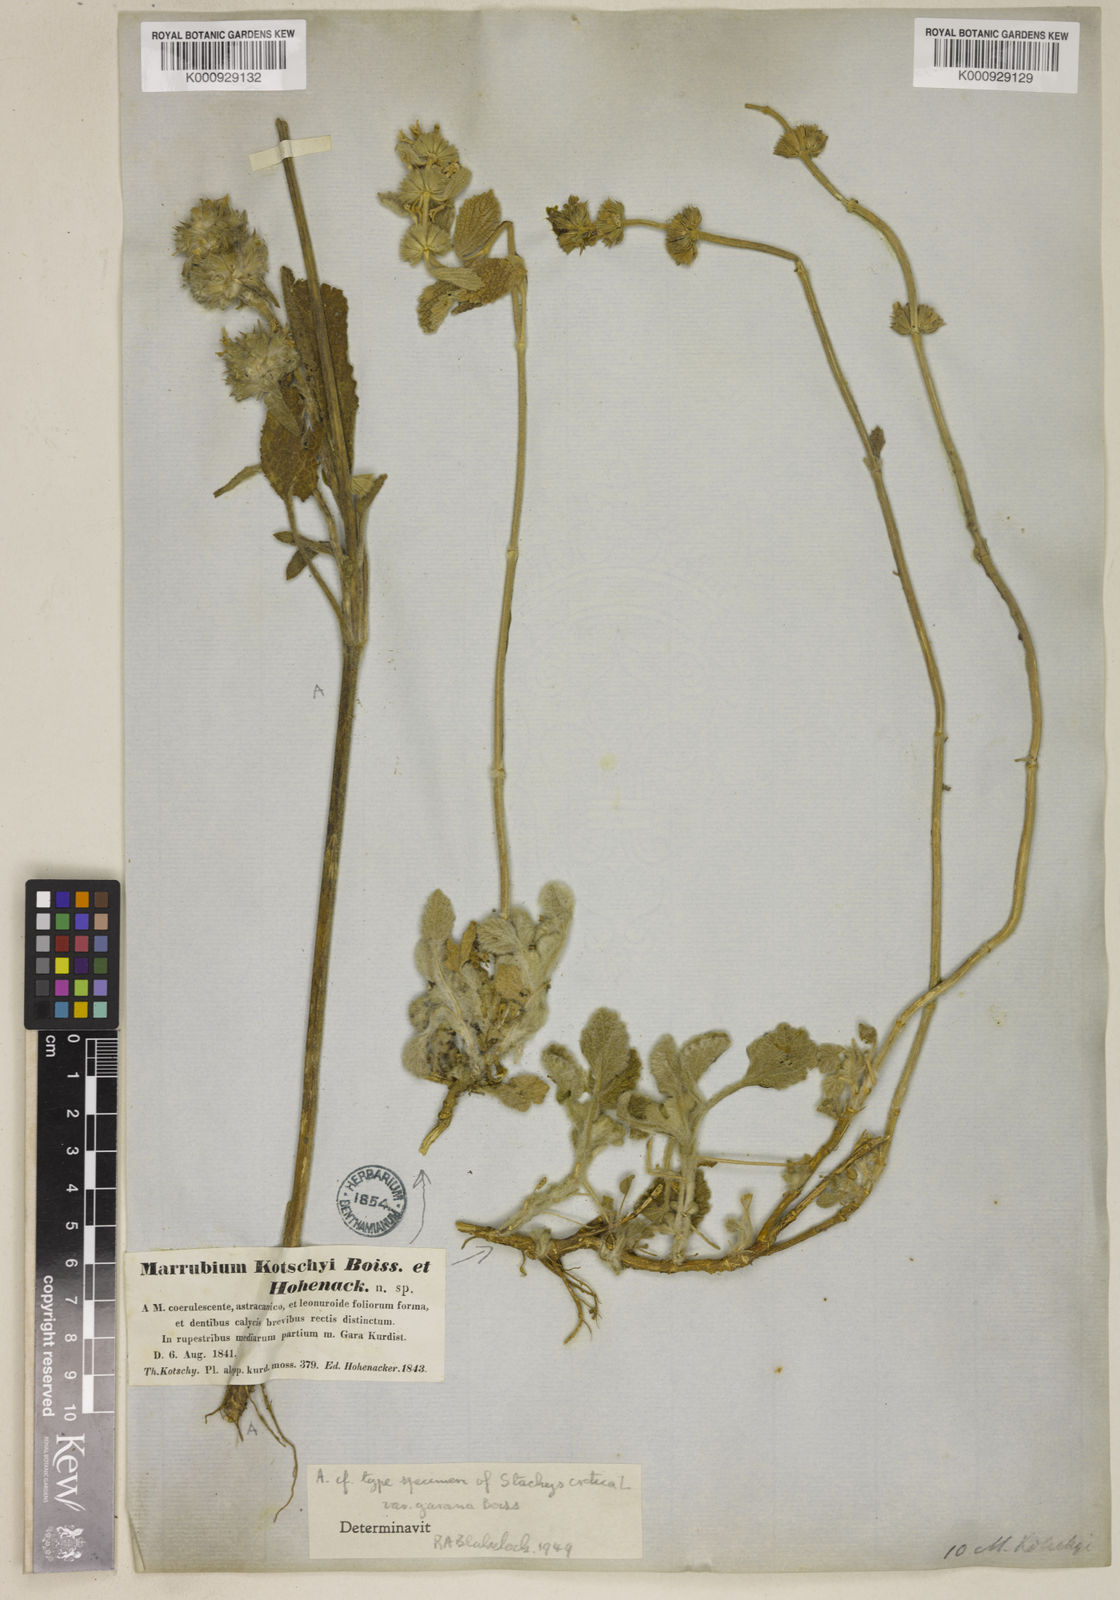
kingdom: Plantae
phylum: Tracheophyta
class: Magnoliopsida
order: Lamiales
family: Lamiaceae
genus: Marrubium
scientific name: Marrubium astracanicum
